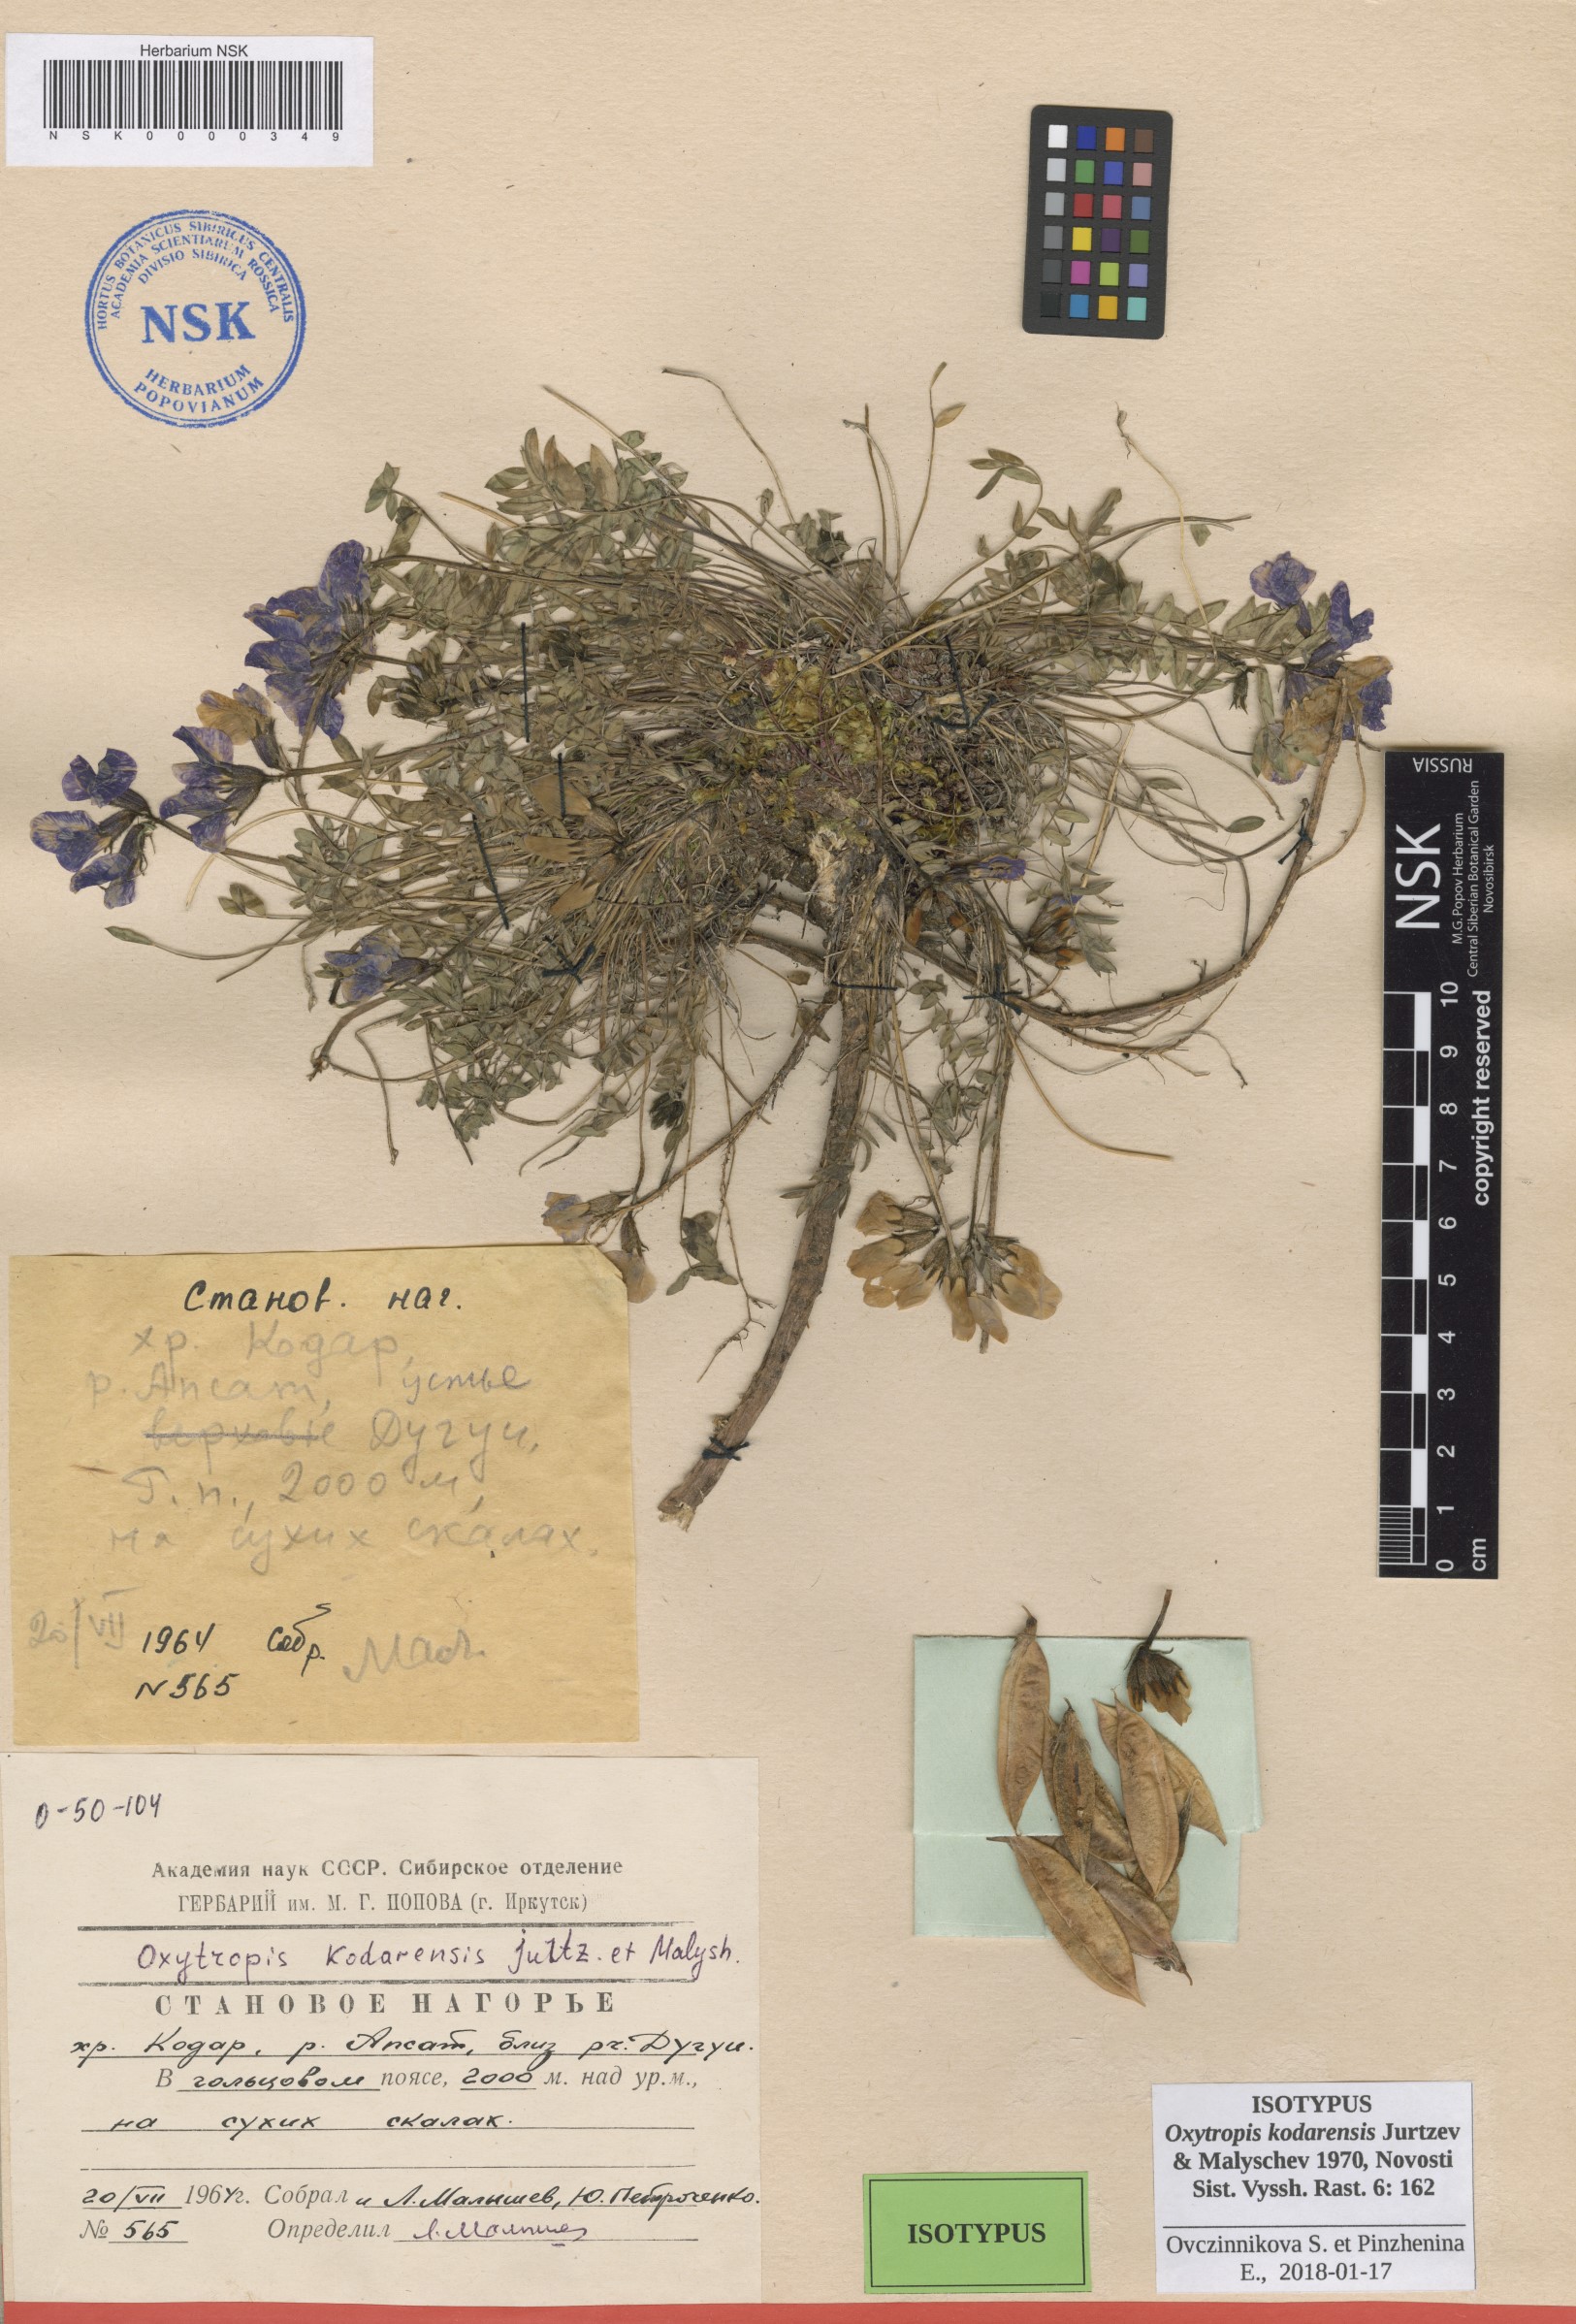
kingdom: Plantae
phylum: Tracheophyta
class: Magnoliopsida
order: Fabales
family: Fabaceae
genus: Oxytropis
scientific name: Oxytropis kodarensis
